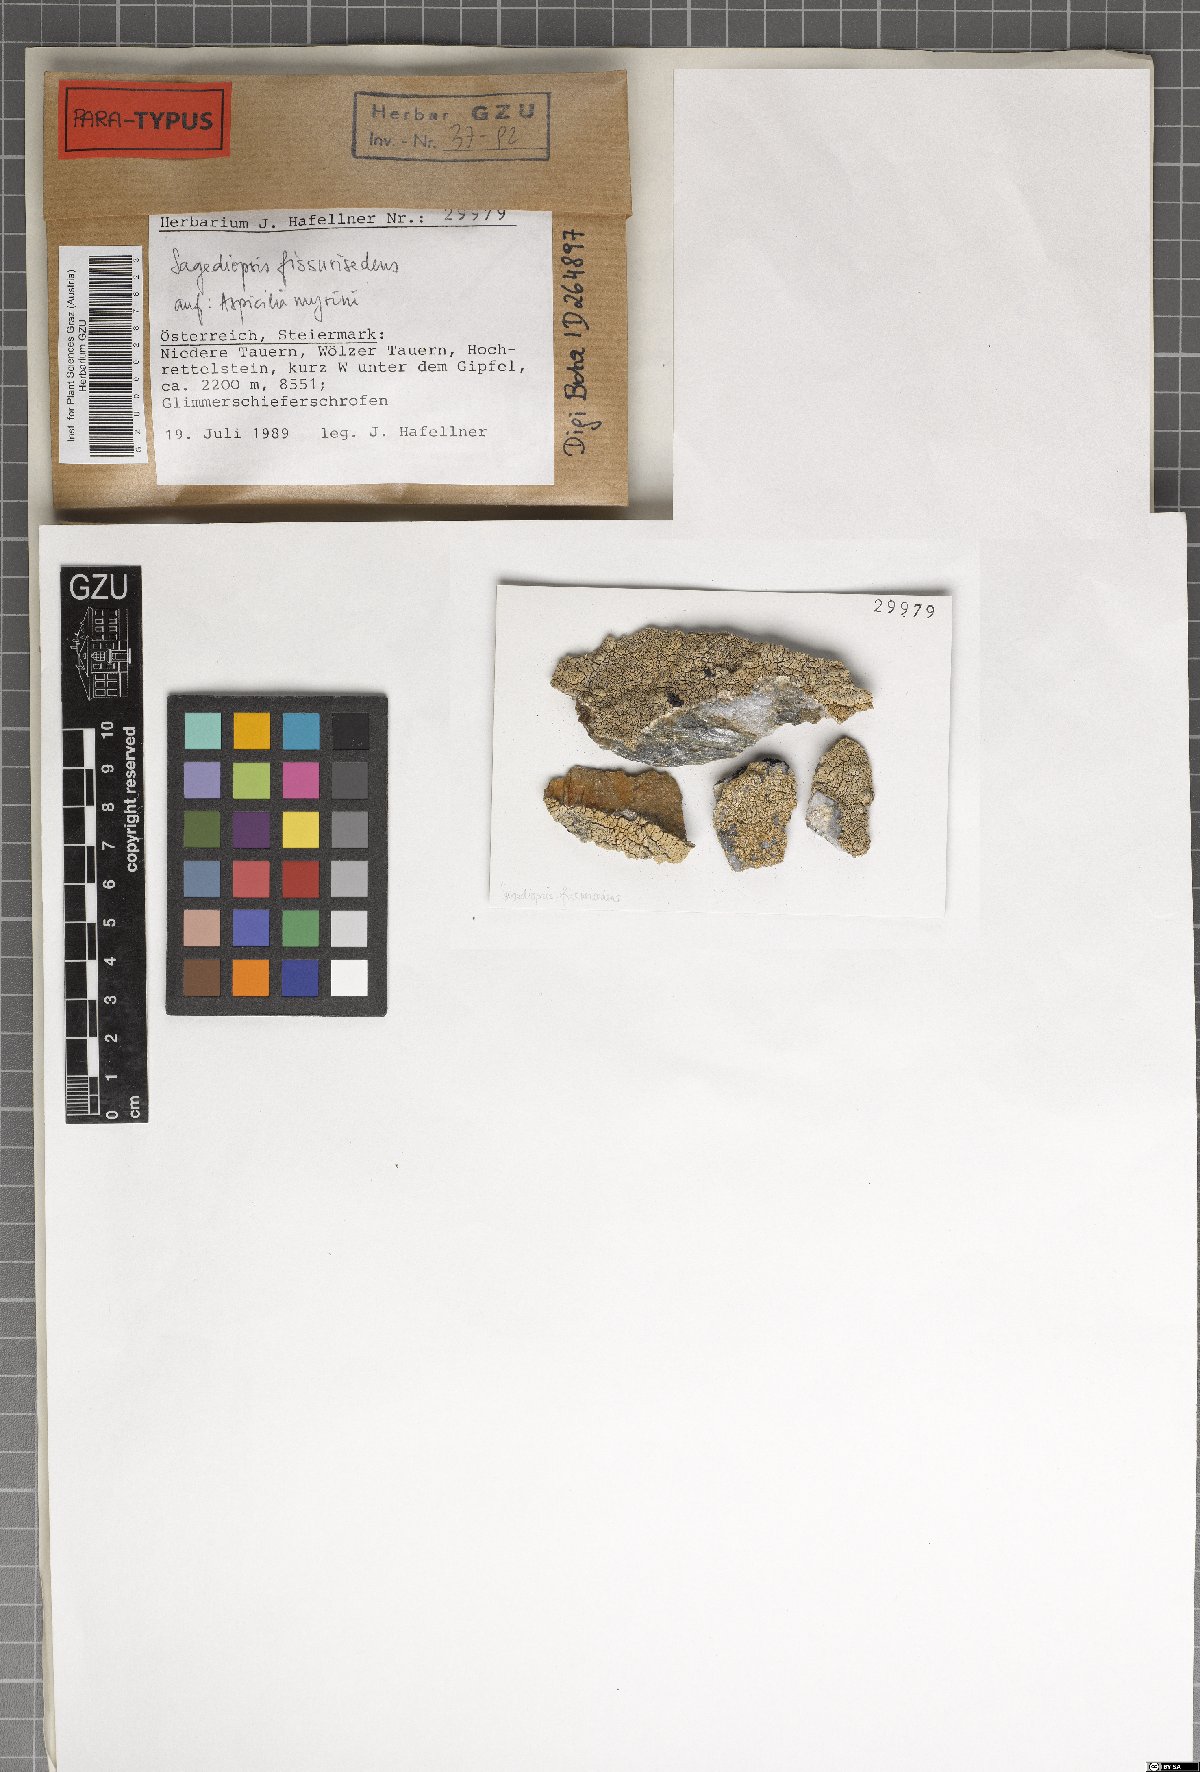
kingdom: Fungi
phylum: Ascomycota
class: Eurotiomycetes
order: Verrucariales
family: Adelococcaceae
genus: Sagediopsis
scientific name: Sagediopsis fissurisedens
